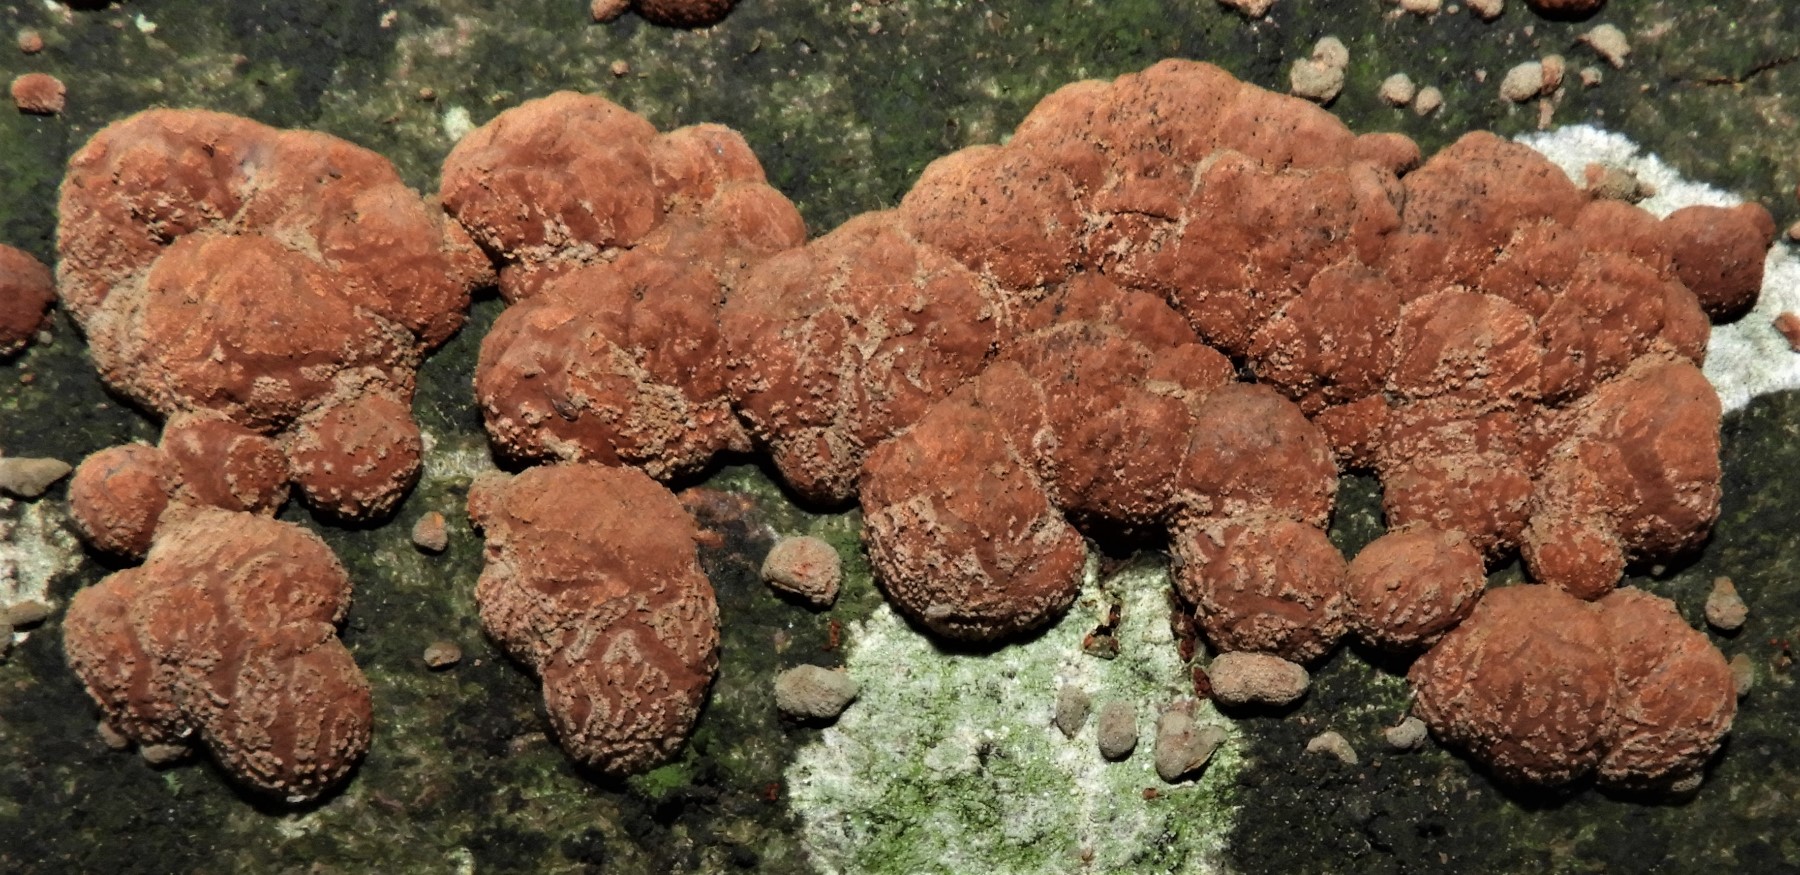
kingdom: Fungi
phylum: Ascomycota
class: Sordariomycetes
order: Xylariales
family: Hypoxylaceae
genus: Hypoxylon
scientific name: Hypoxylon fragiforme
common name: kuljordbær
